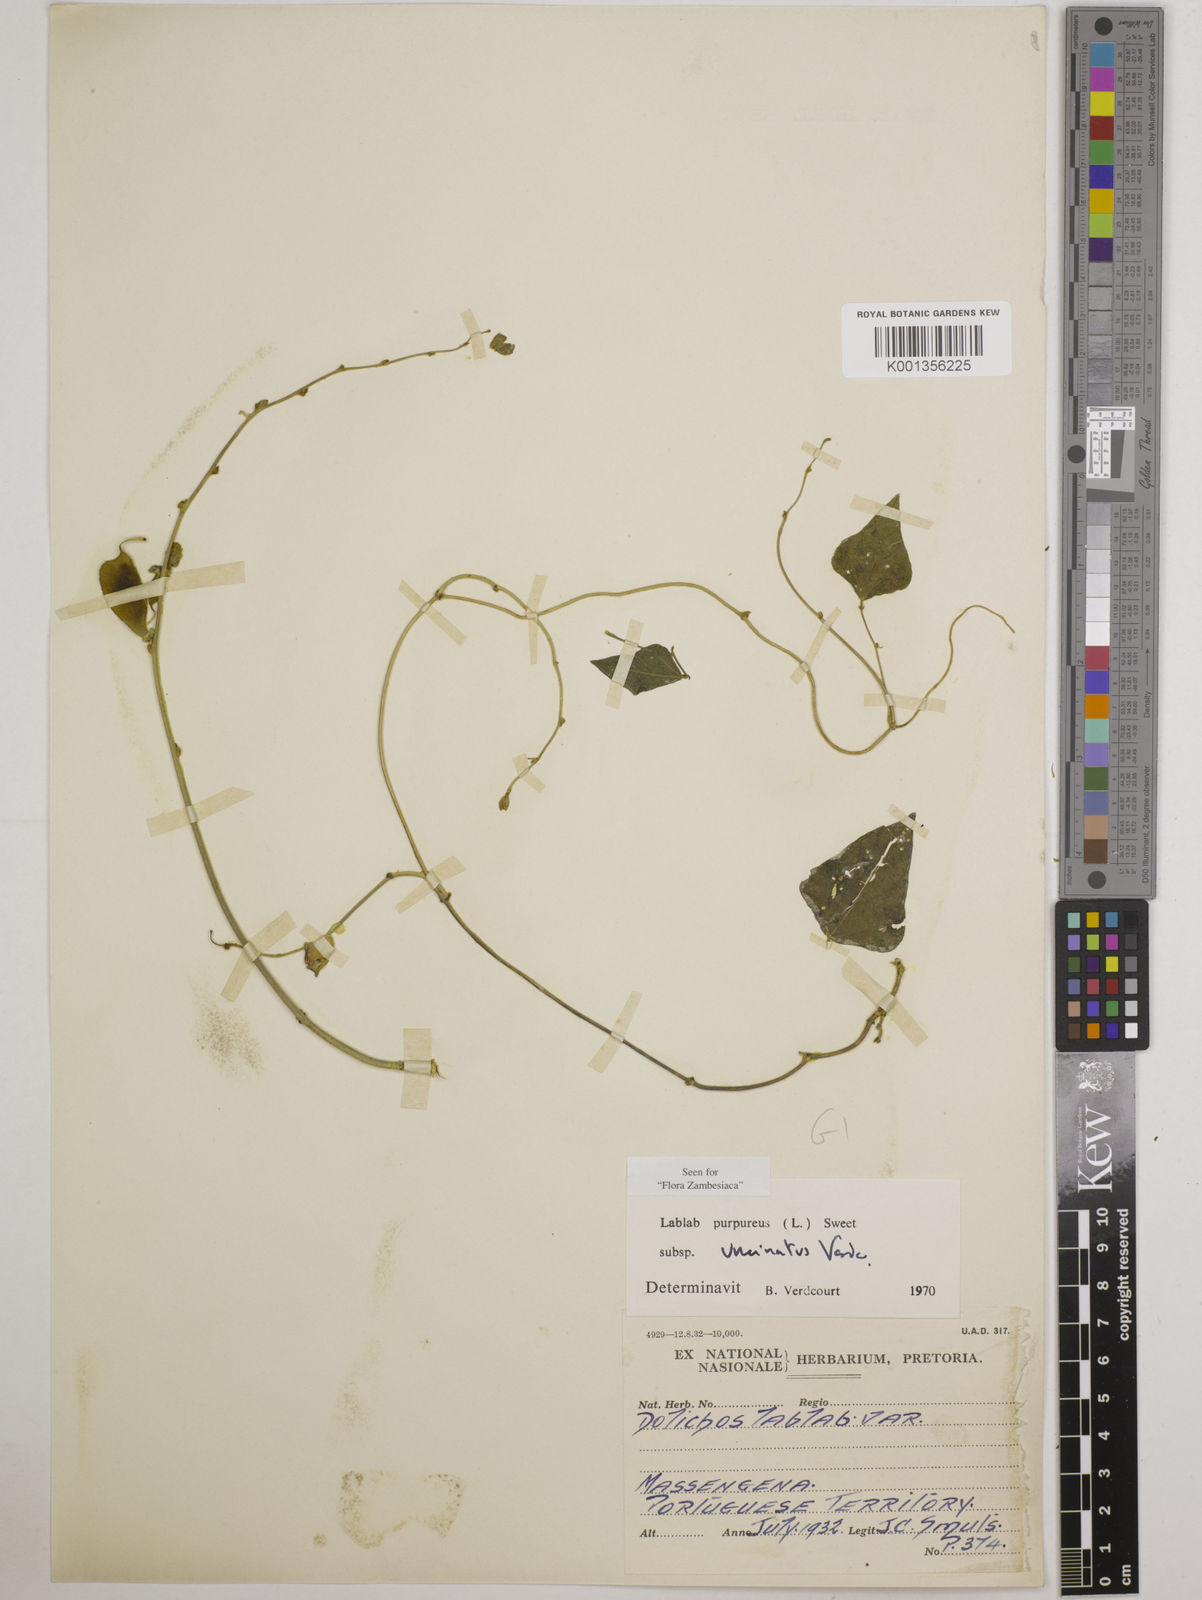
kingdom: Plantae
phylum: Tracheophyta
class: Magnoliopsida
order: Fabales
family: Fabaceae
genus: Lablab
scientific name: Lablab purpureus
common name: Lablab-bean
